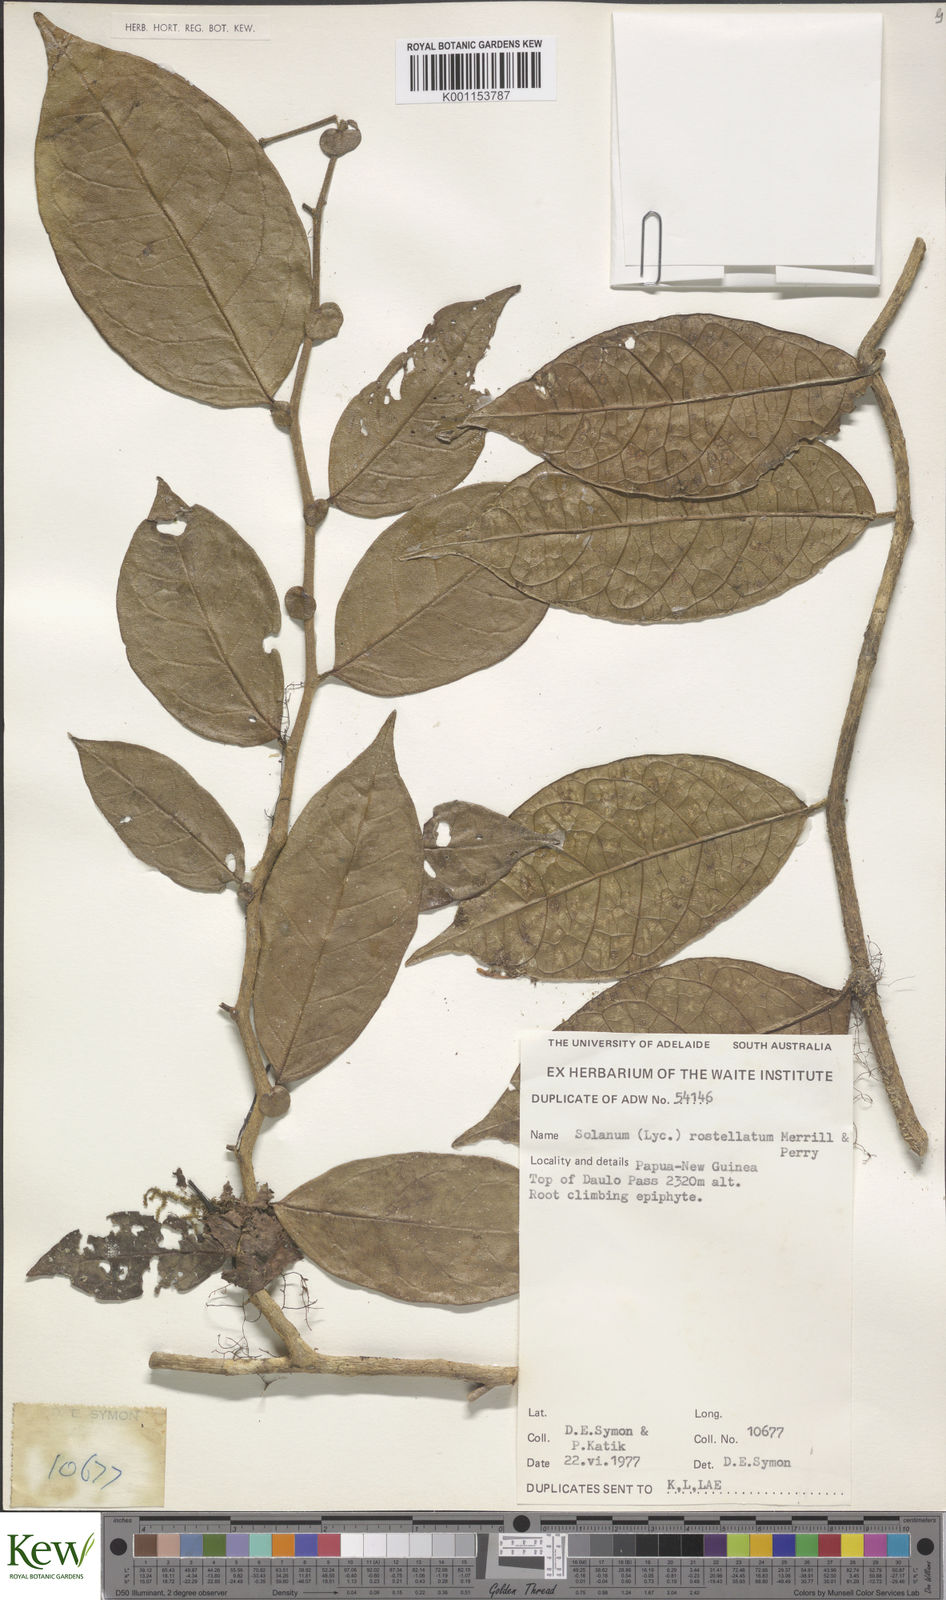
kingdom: Plantae
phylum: Tracheophyta
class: Magnoliopsida
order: Solanales
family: Solanaceae
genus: Lycianthes
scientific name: Lycianthes rostellata
